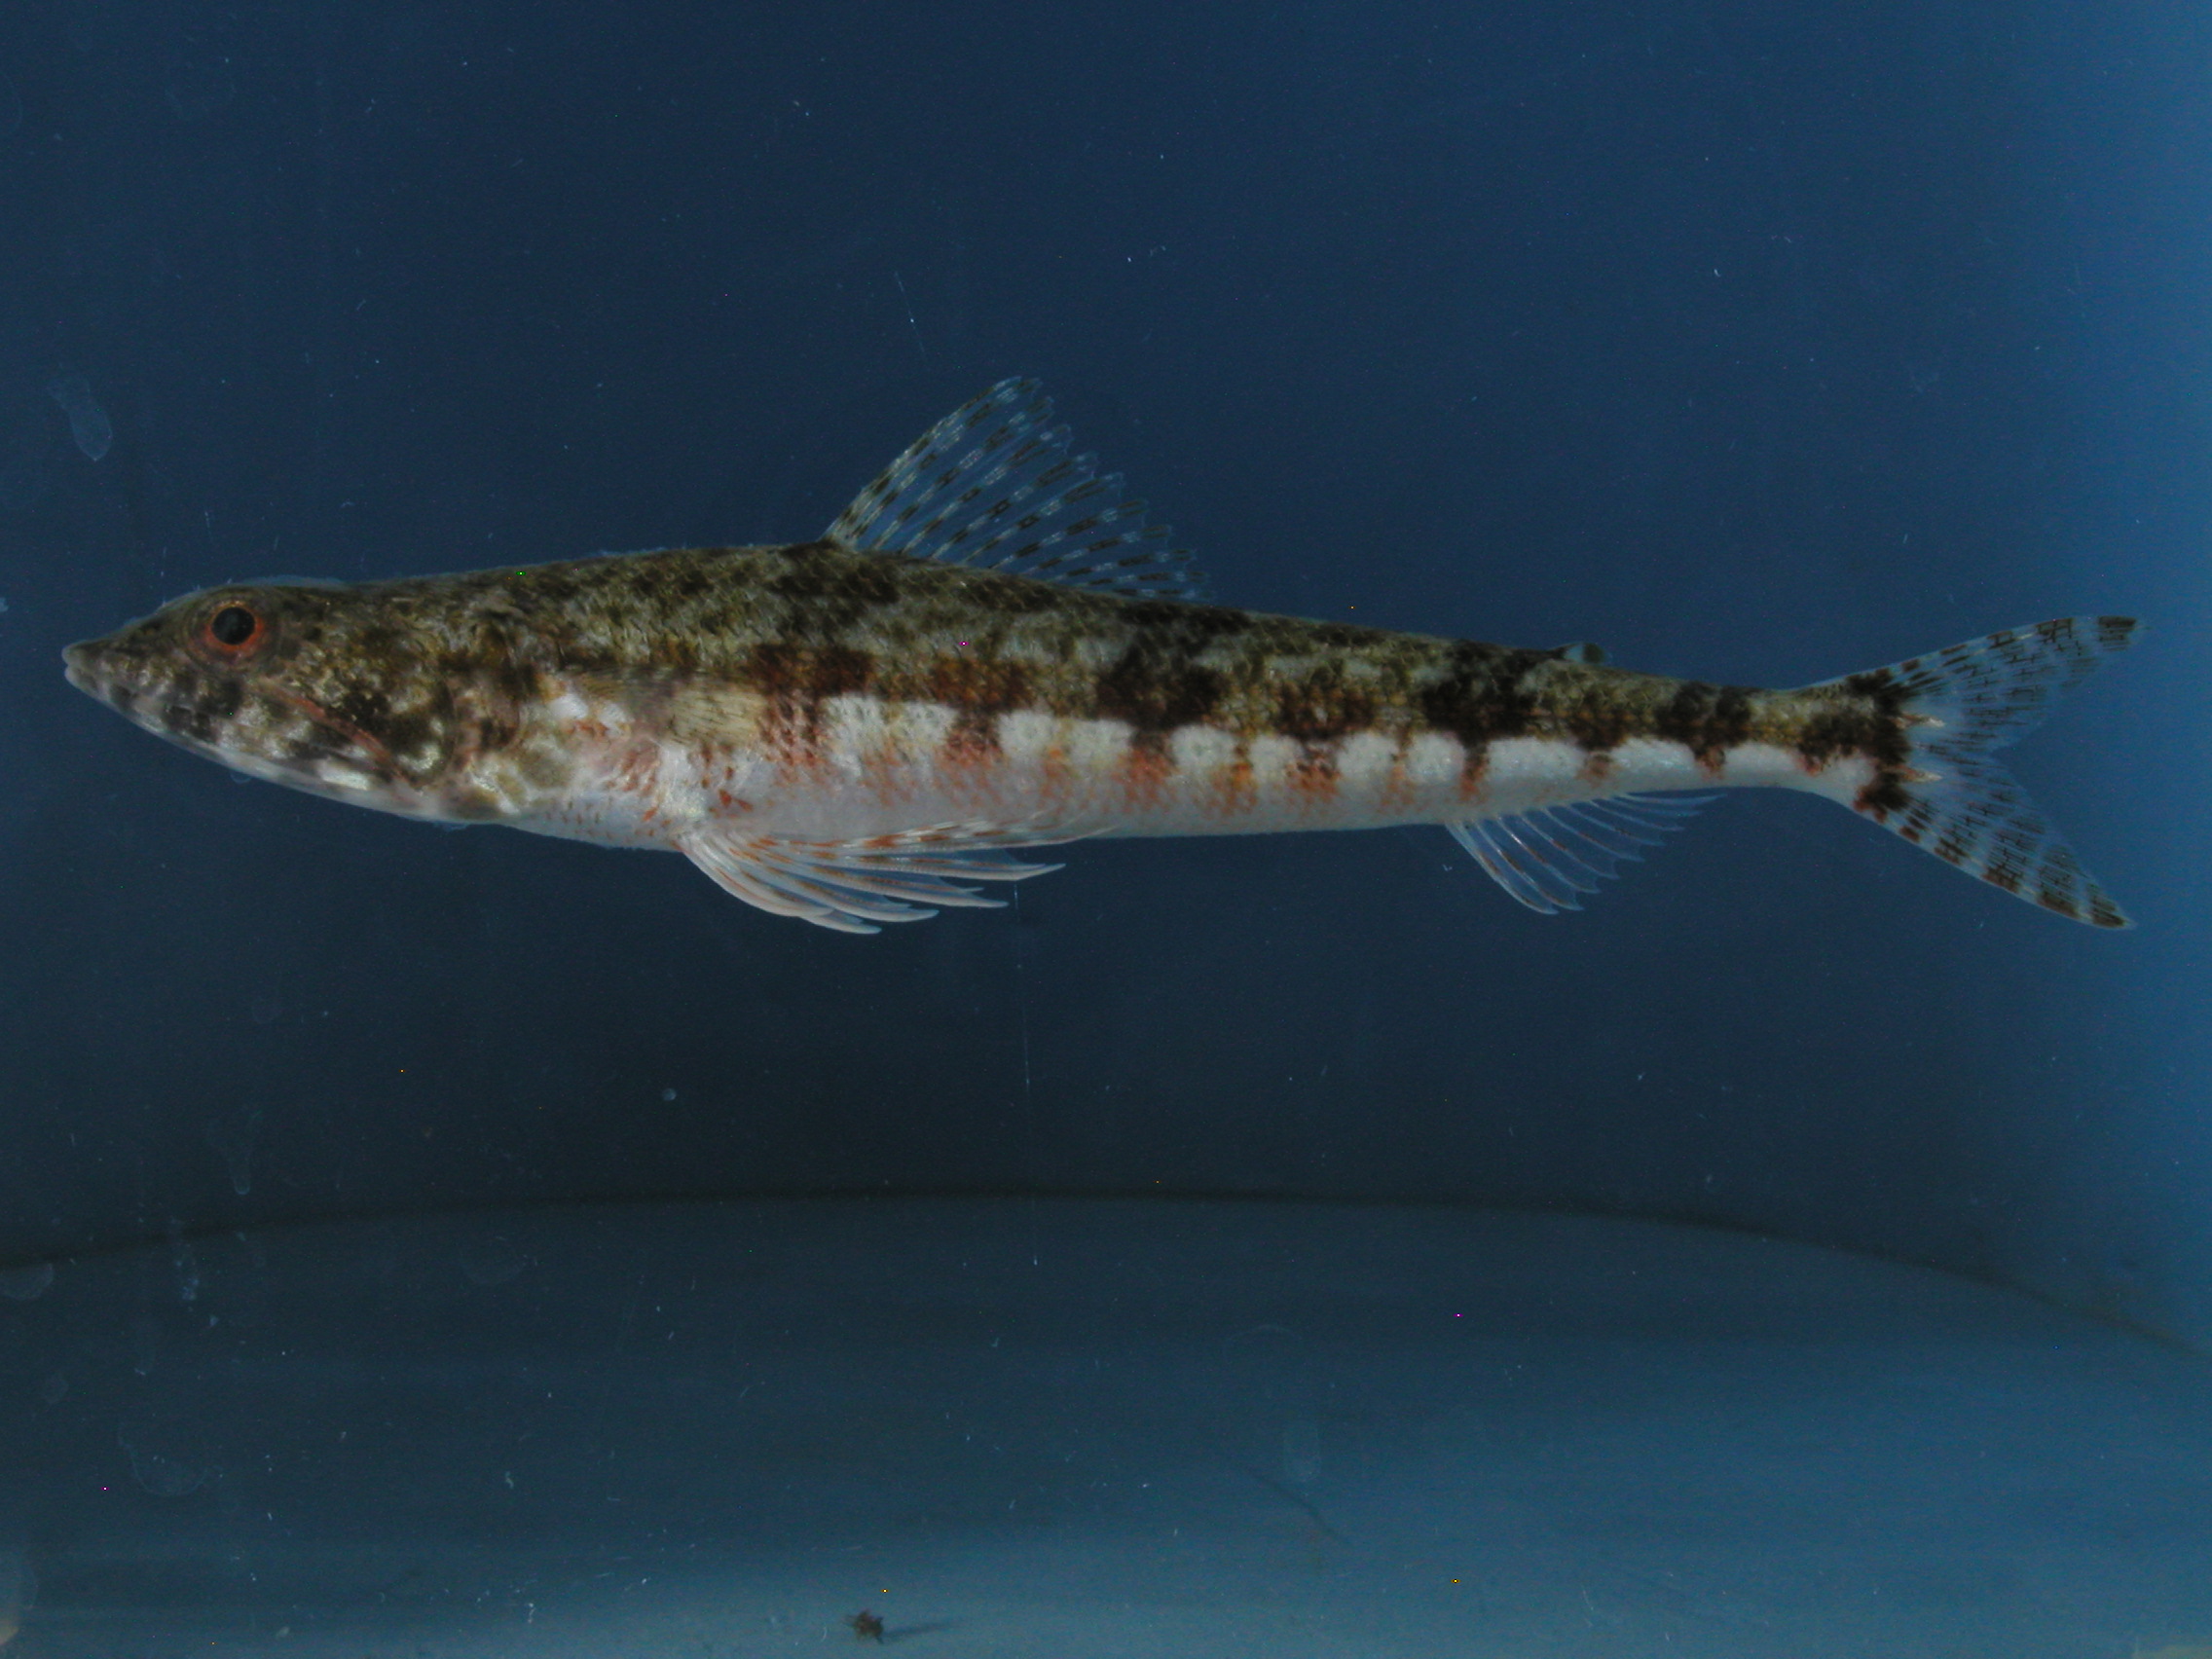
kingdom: Animalia
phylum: Chordata
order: Aulopiformes
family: Synodontidae
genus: Synodus
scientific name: Synodus variegatus
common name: Variegated lizardfish
